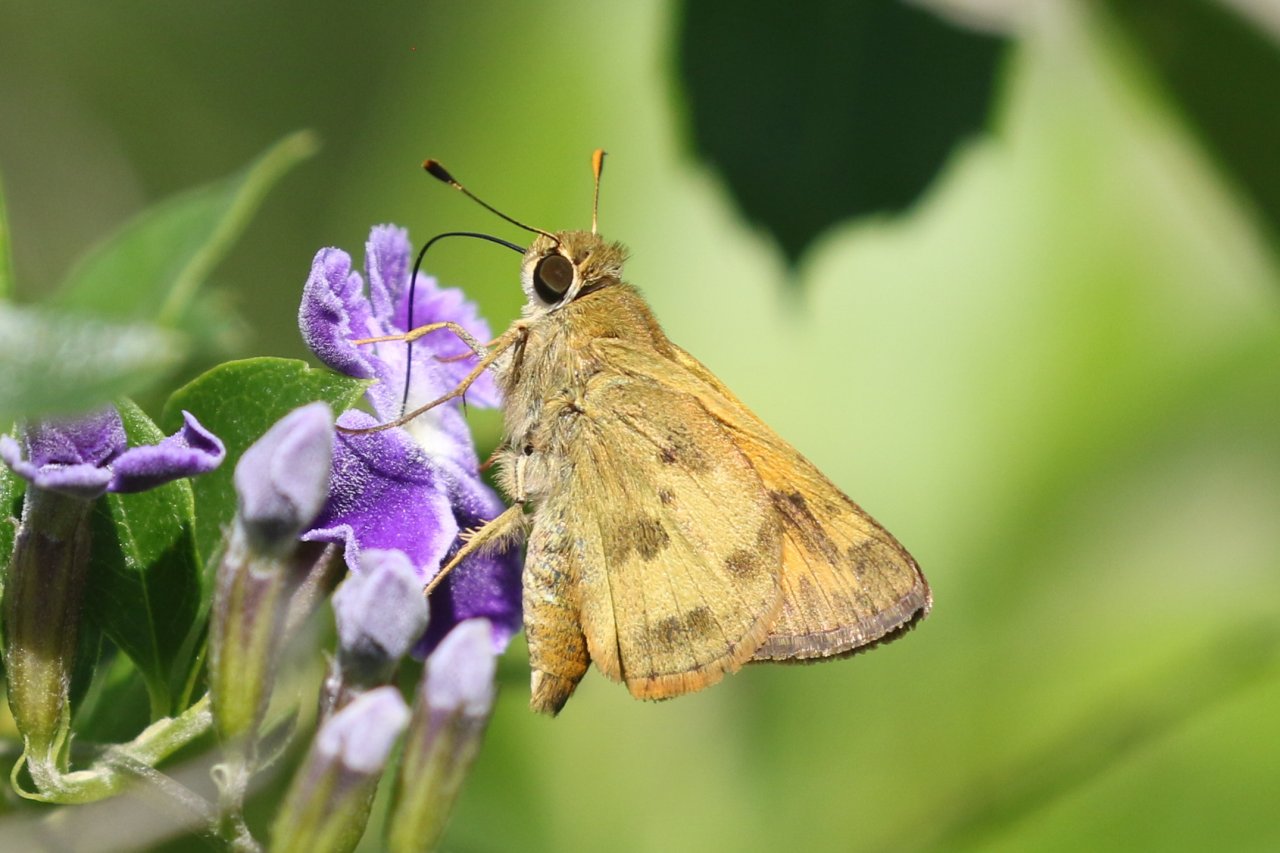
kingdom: Animalia
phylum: Arthropoda
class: Insecta
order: Lepidoptera
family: Hesperiidae
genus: Polites
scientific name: Polites vibex
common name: Whirlabout
